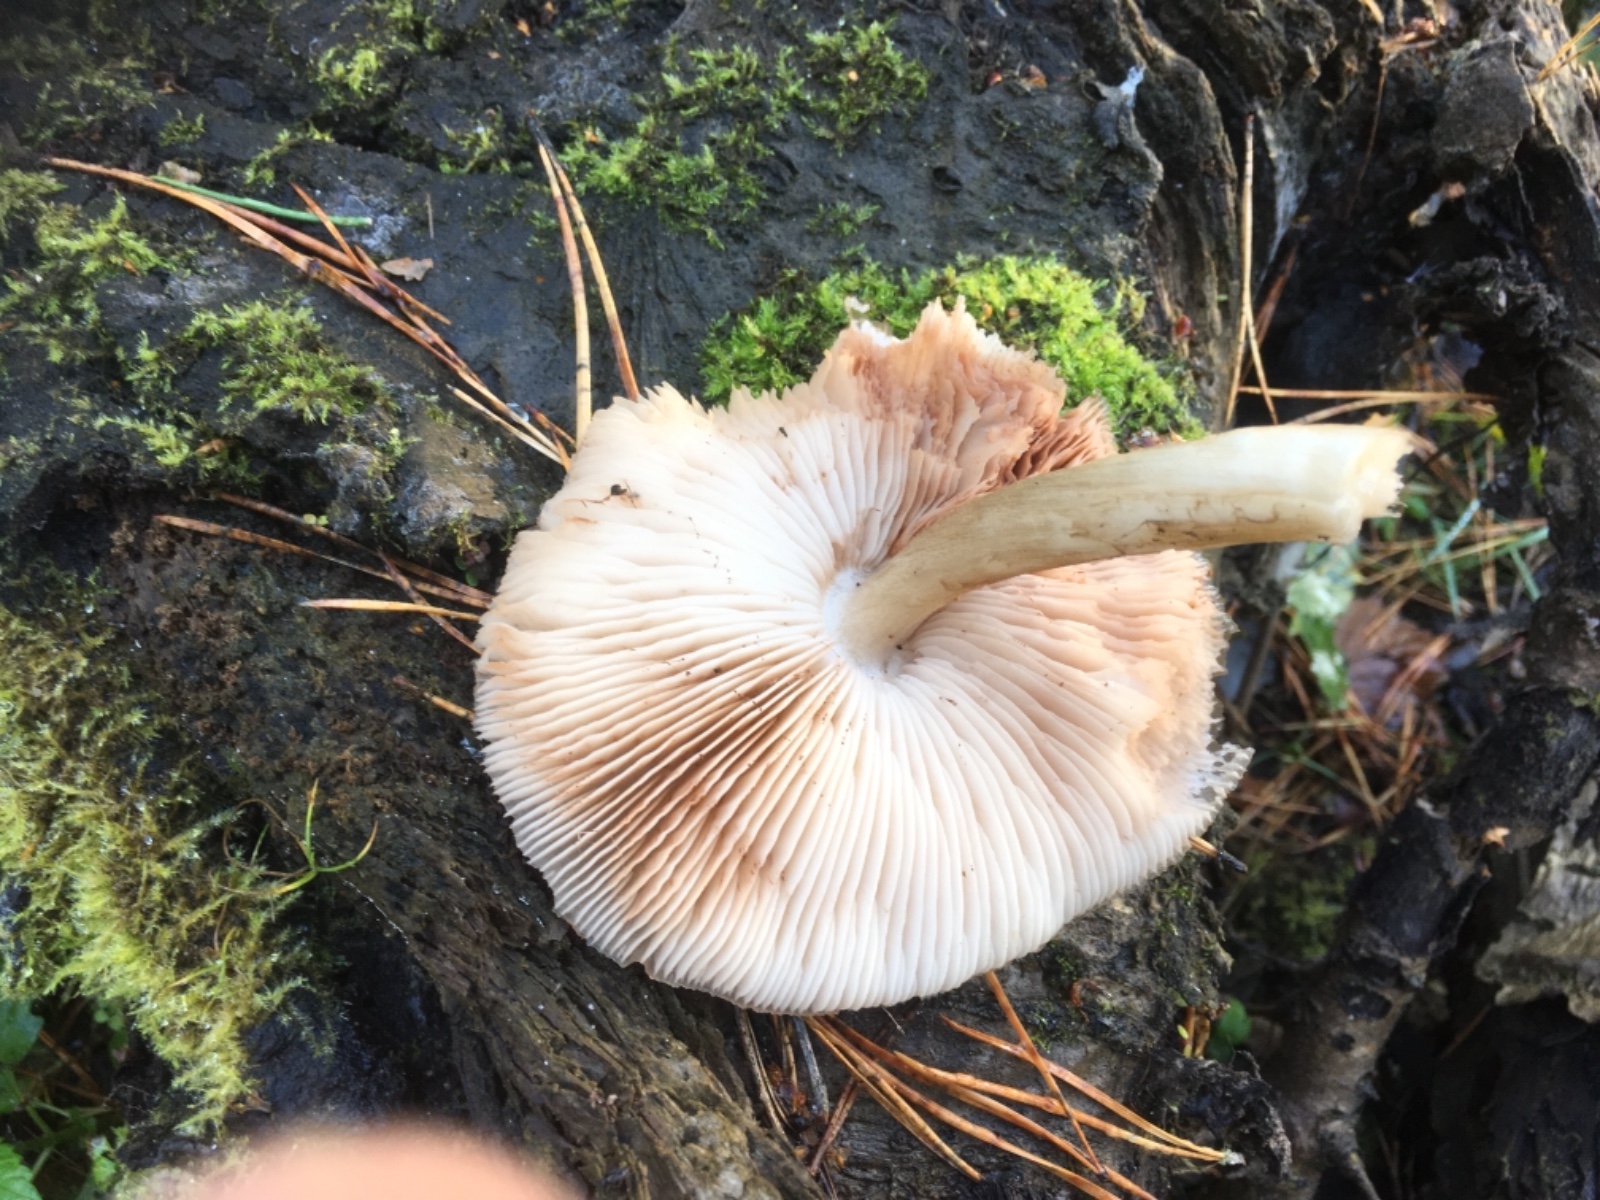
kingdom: Fungi
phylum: Basidiomycota
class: Agaricomycetes
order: Agaricales
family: Pluteaceae
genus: Pluteus
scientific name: Pluteus cervinus
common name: sodfarvet skærmhat
